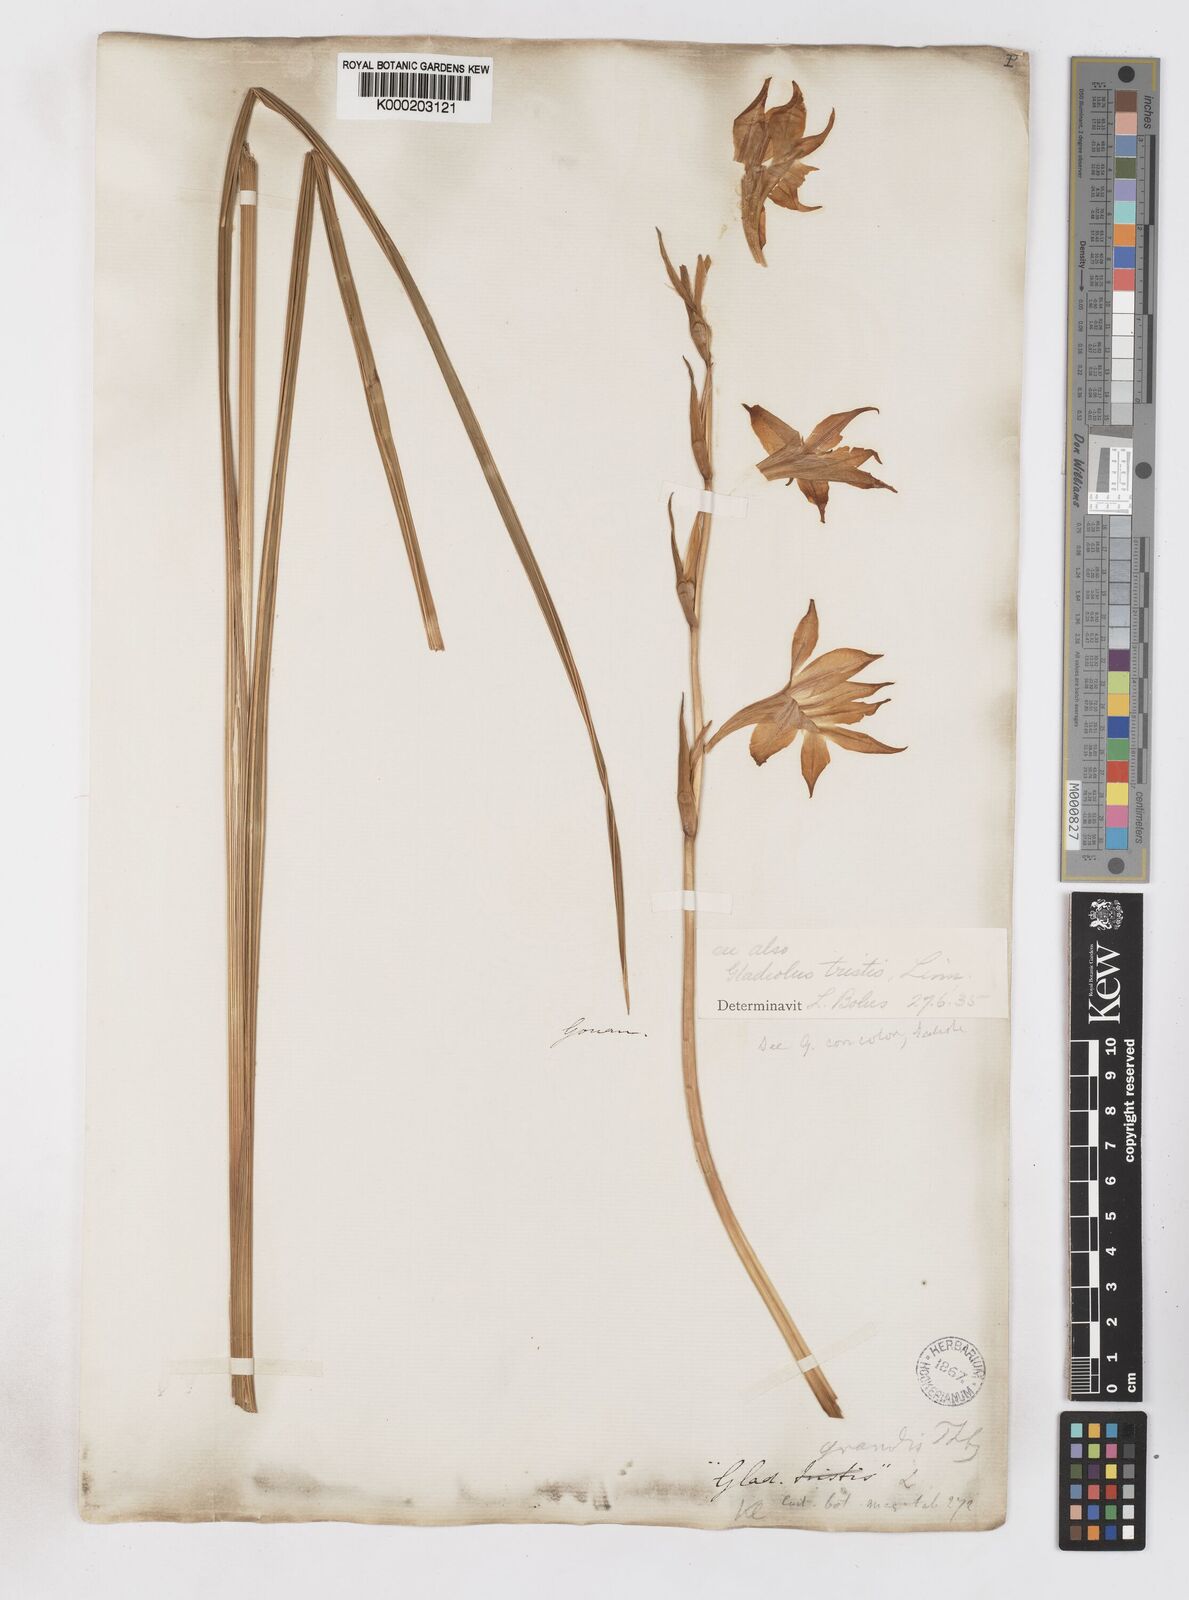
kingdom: Plantae
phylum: Tracheophyta
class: Liliopsida
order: Asparagales
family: Iridaceae
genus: Gladiolus
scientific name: Gladiolus tristis
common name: Ever-flowering gladiolus
